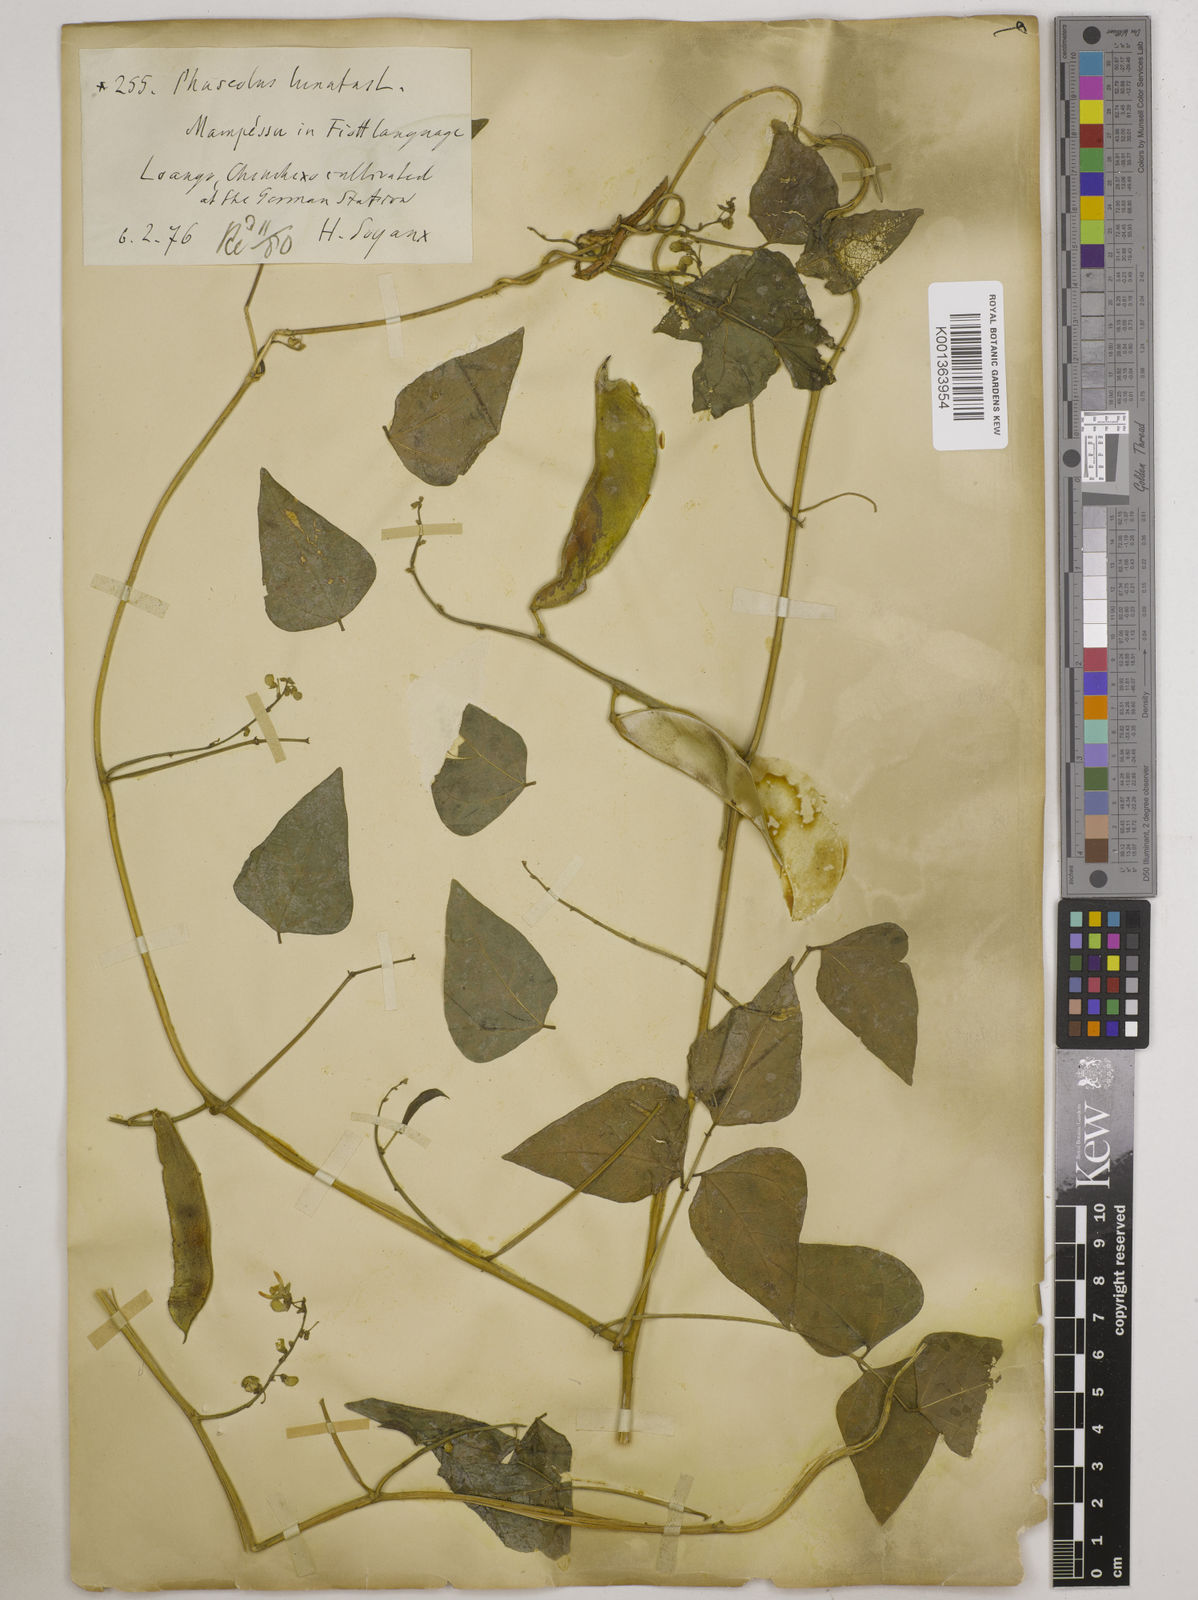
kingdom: Plantae
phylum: Tracheophyta
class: Magnoliopsida
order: Fabales
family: Fabaceae
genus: Phaseolus
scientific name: Phaseolus lunatus
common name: Sieva bean
